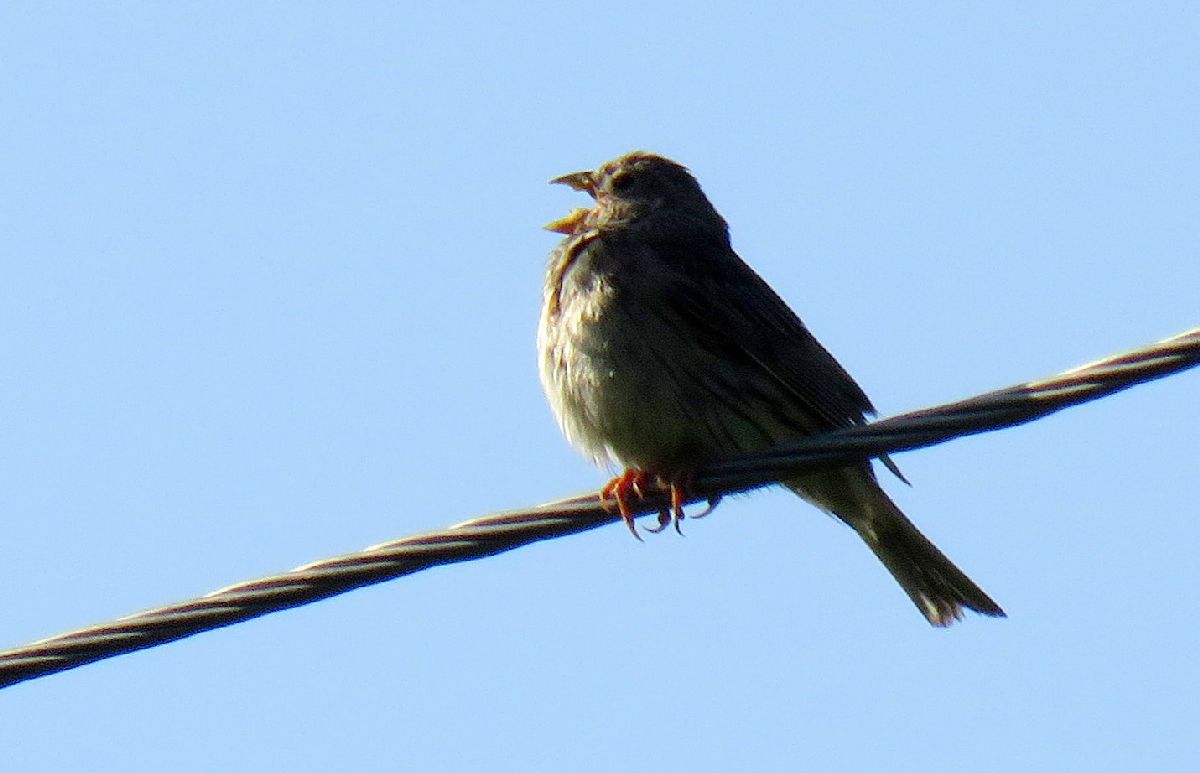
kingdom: Animalia
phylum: Chordata
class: Aves
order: Passeriformes
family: Emberizidae
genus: Emberiza
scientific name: Emberiza calandra
